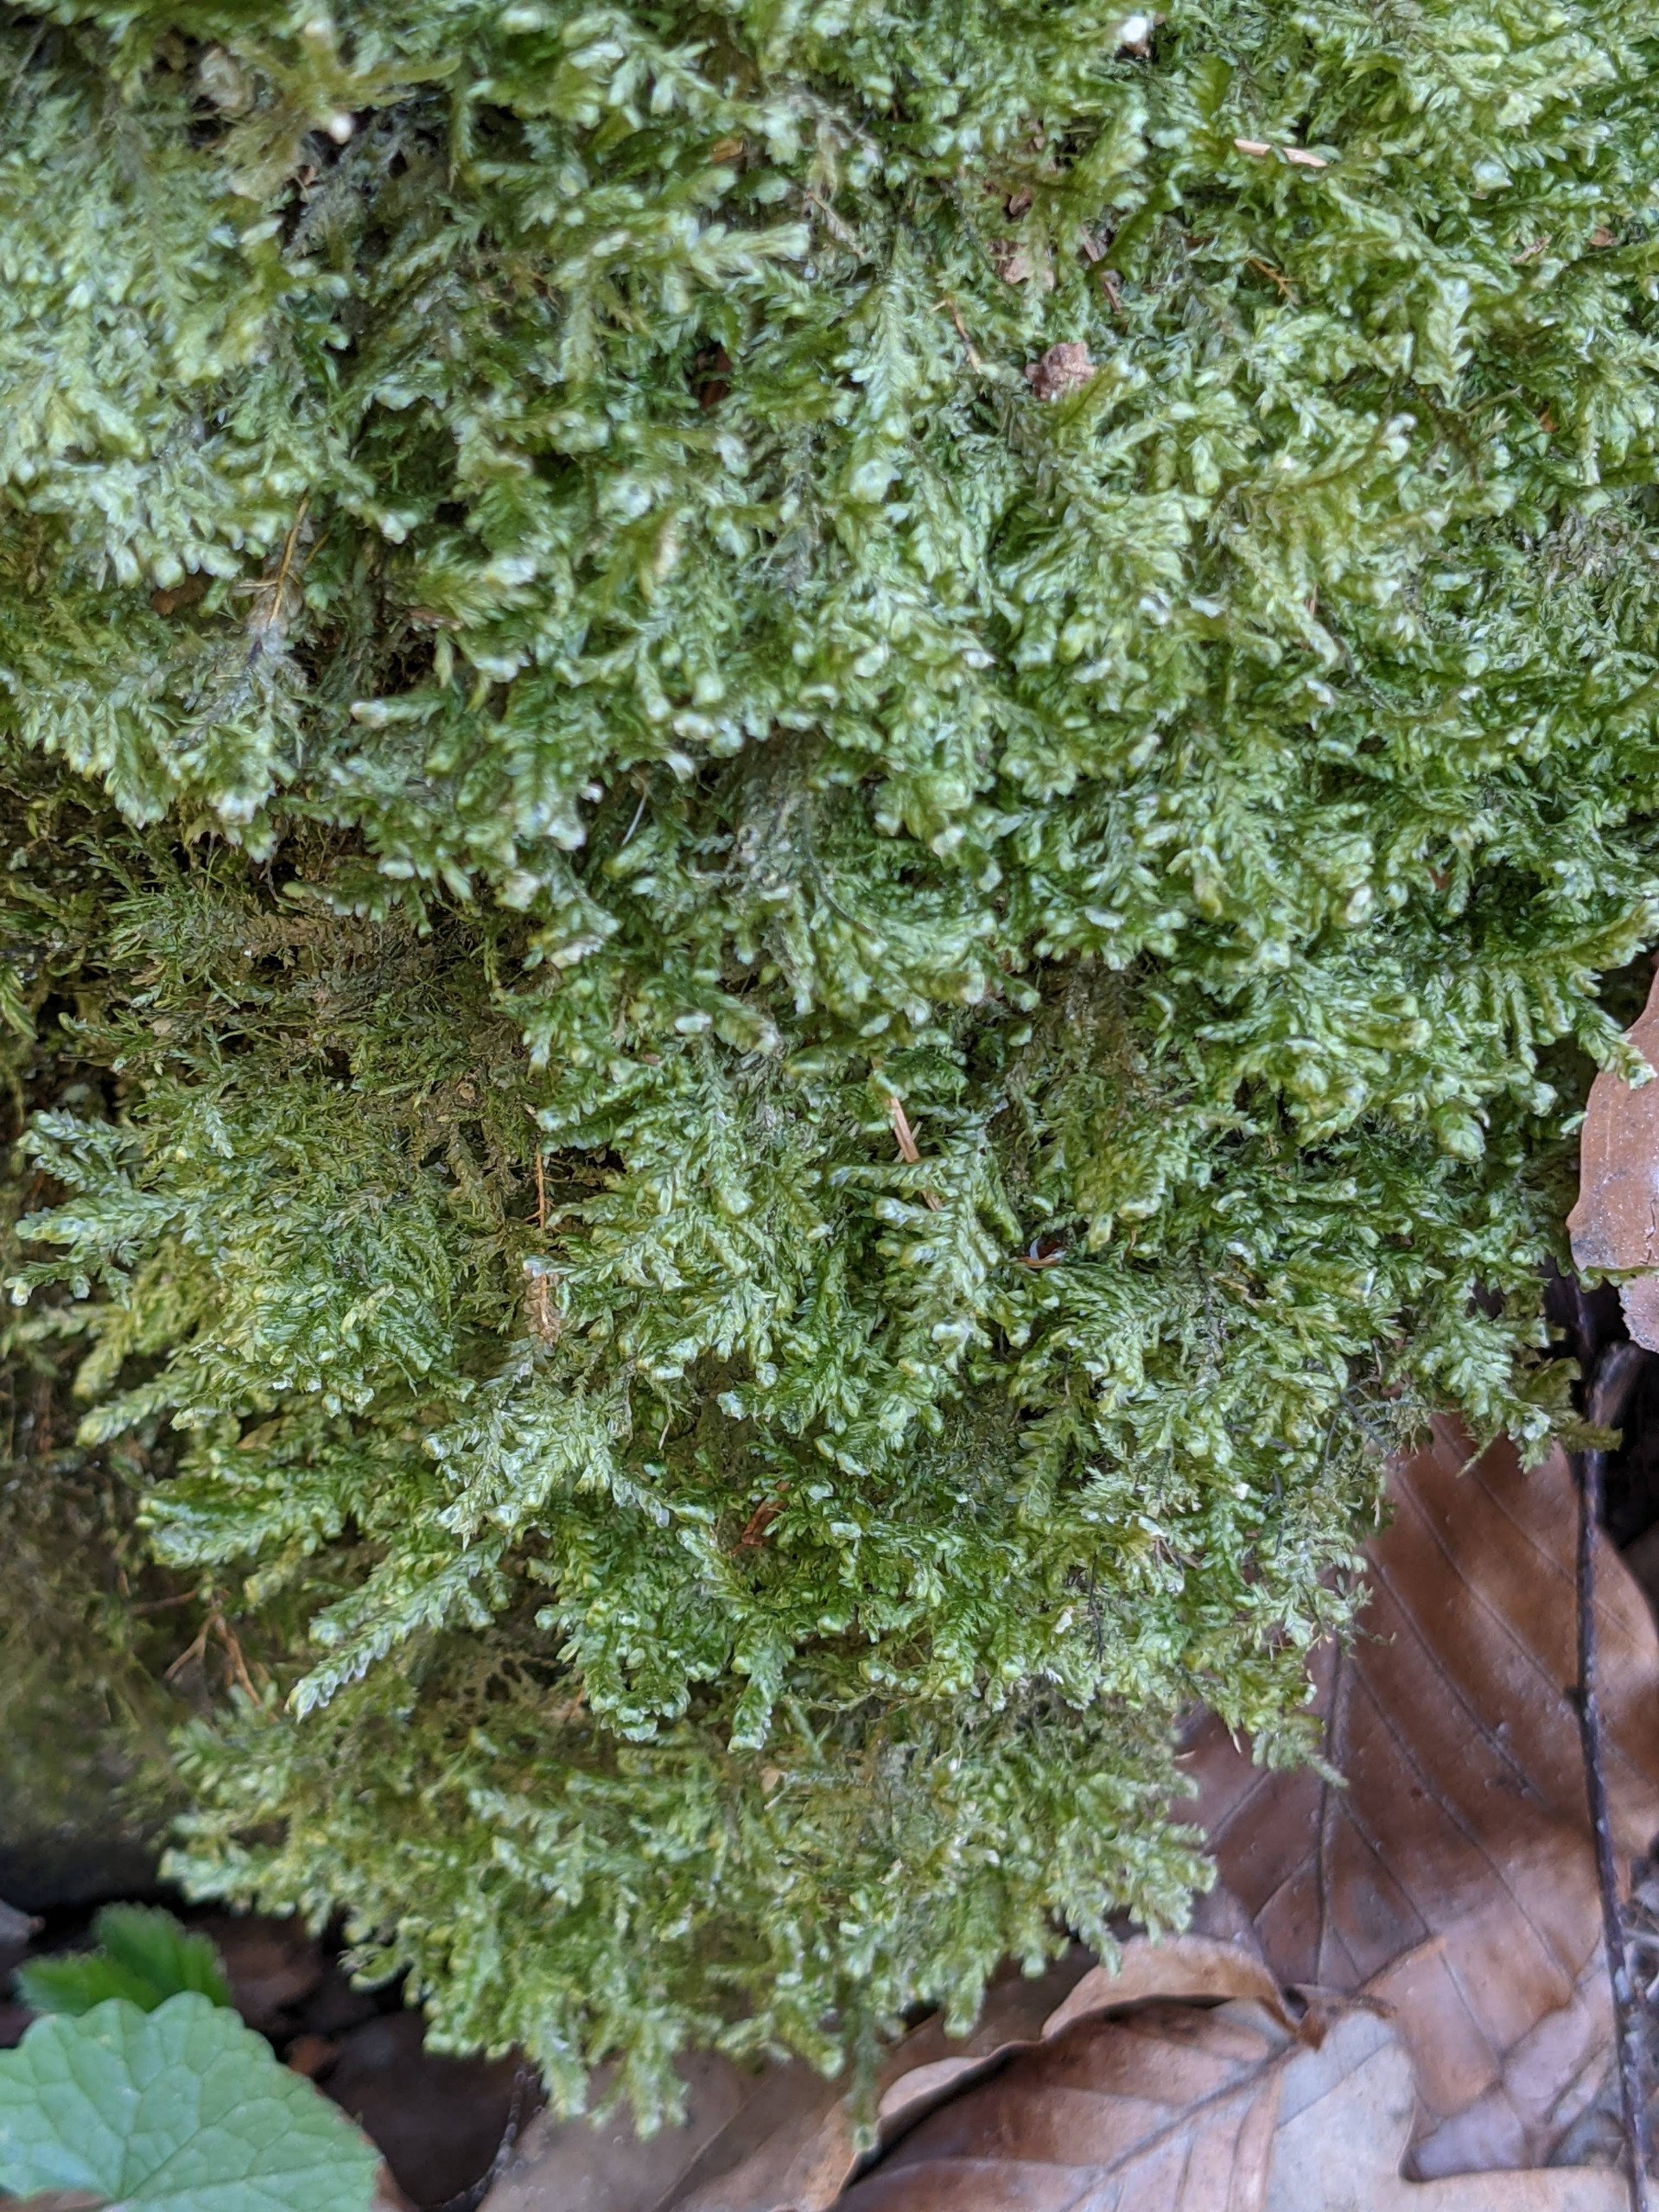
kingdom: Plantae
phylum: Bryophyta
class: Bryopsida
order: Hypnales
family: Neckeraceae
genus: Alleniella
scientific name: Alleniella complanata
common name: Almindelig fladmos
